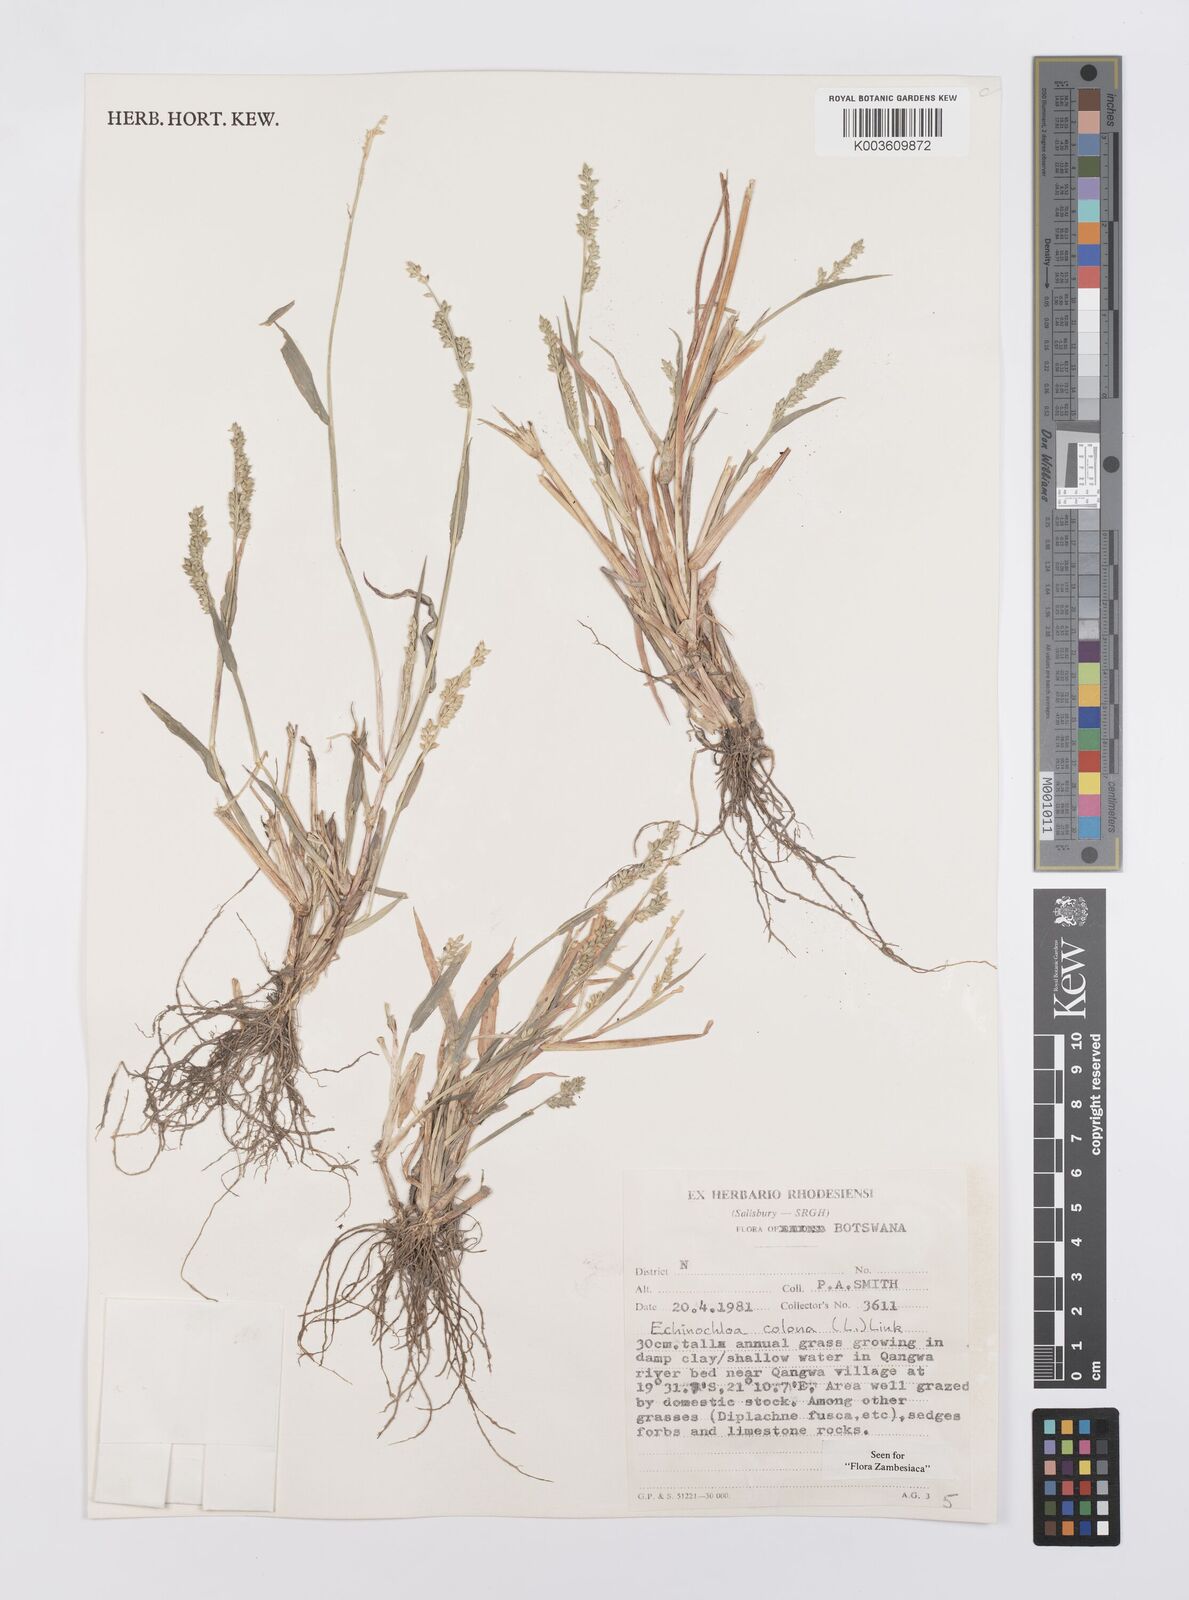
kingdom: Plantae
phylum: Tracheophyta
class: Liliopsida
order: Poales
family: Poaceae
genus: Echinochloa
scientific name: Echinochloa colonum
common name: Jungle rice
